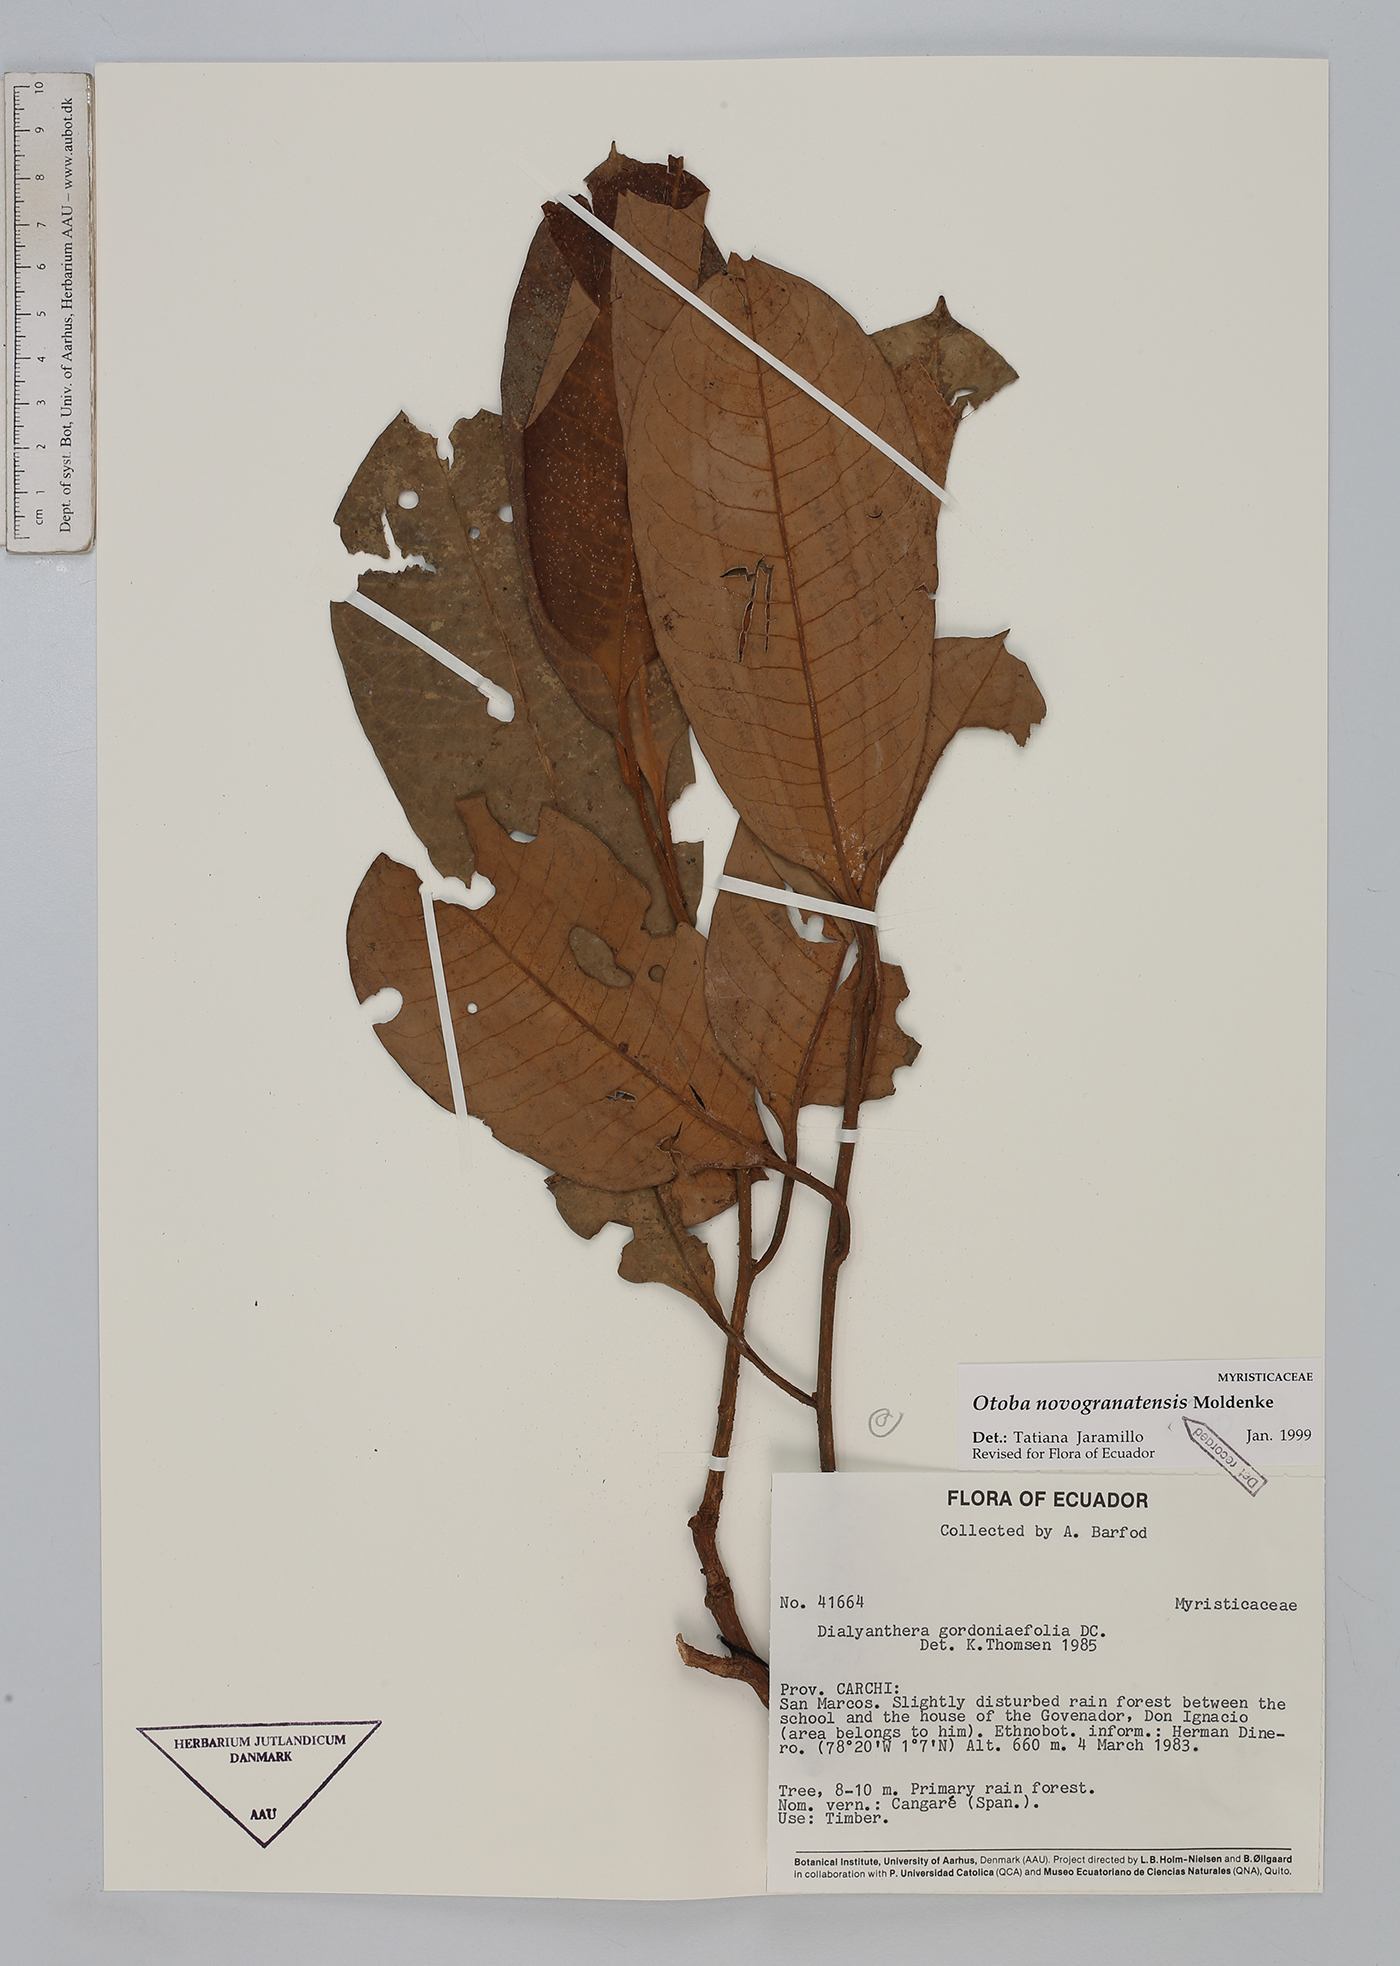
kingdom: Plantae
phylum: Tracheophyta
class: Magnoliopsida
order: Magnoliales
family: Myristicaceae
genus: Otoba
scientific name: Otoba novogranatensis
